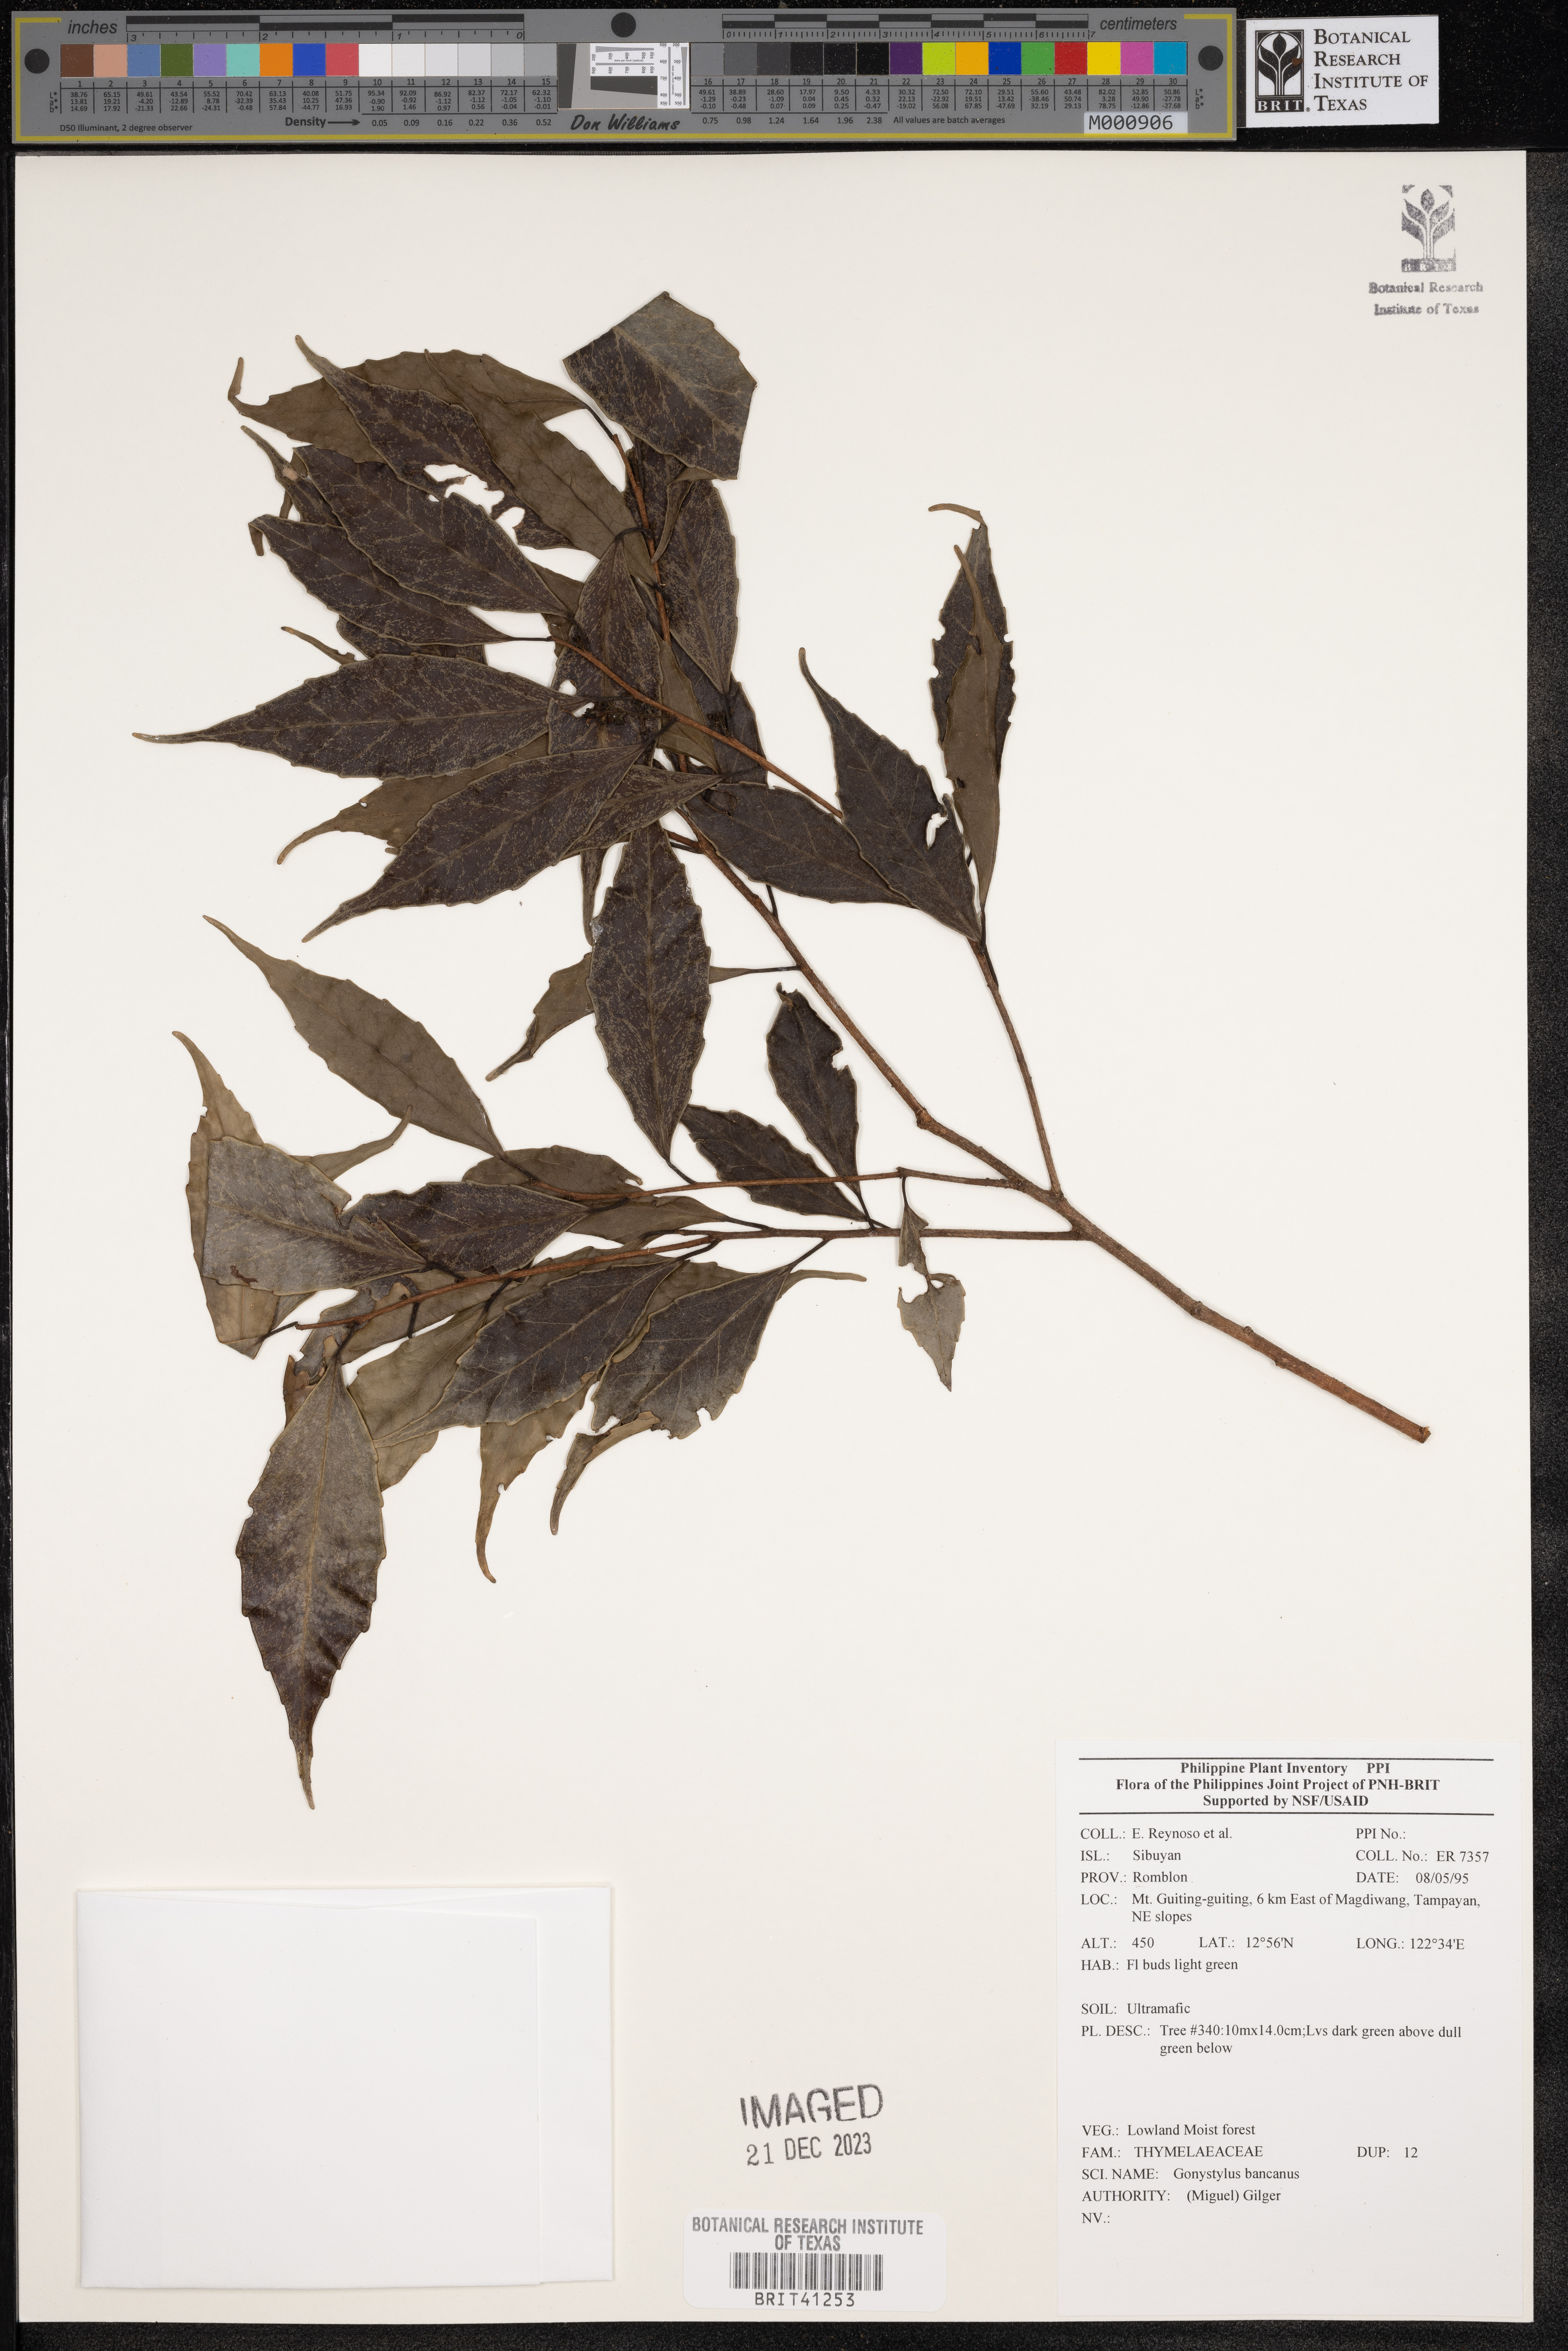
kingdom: Plantae
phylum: Tracheophyta
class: Magnoliopsida
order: Malvales
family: Thymelaeaceae
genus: Gonystylus
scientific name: Gonystylus bancanus
